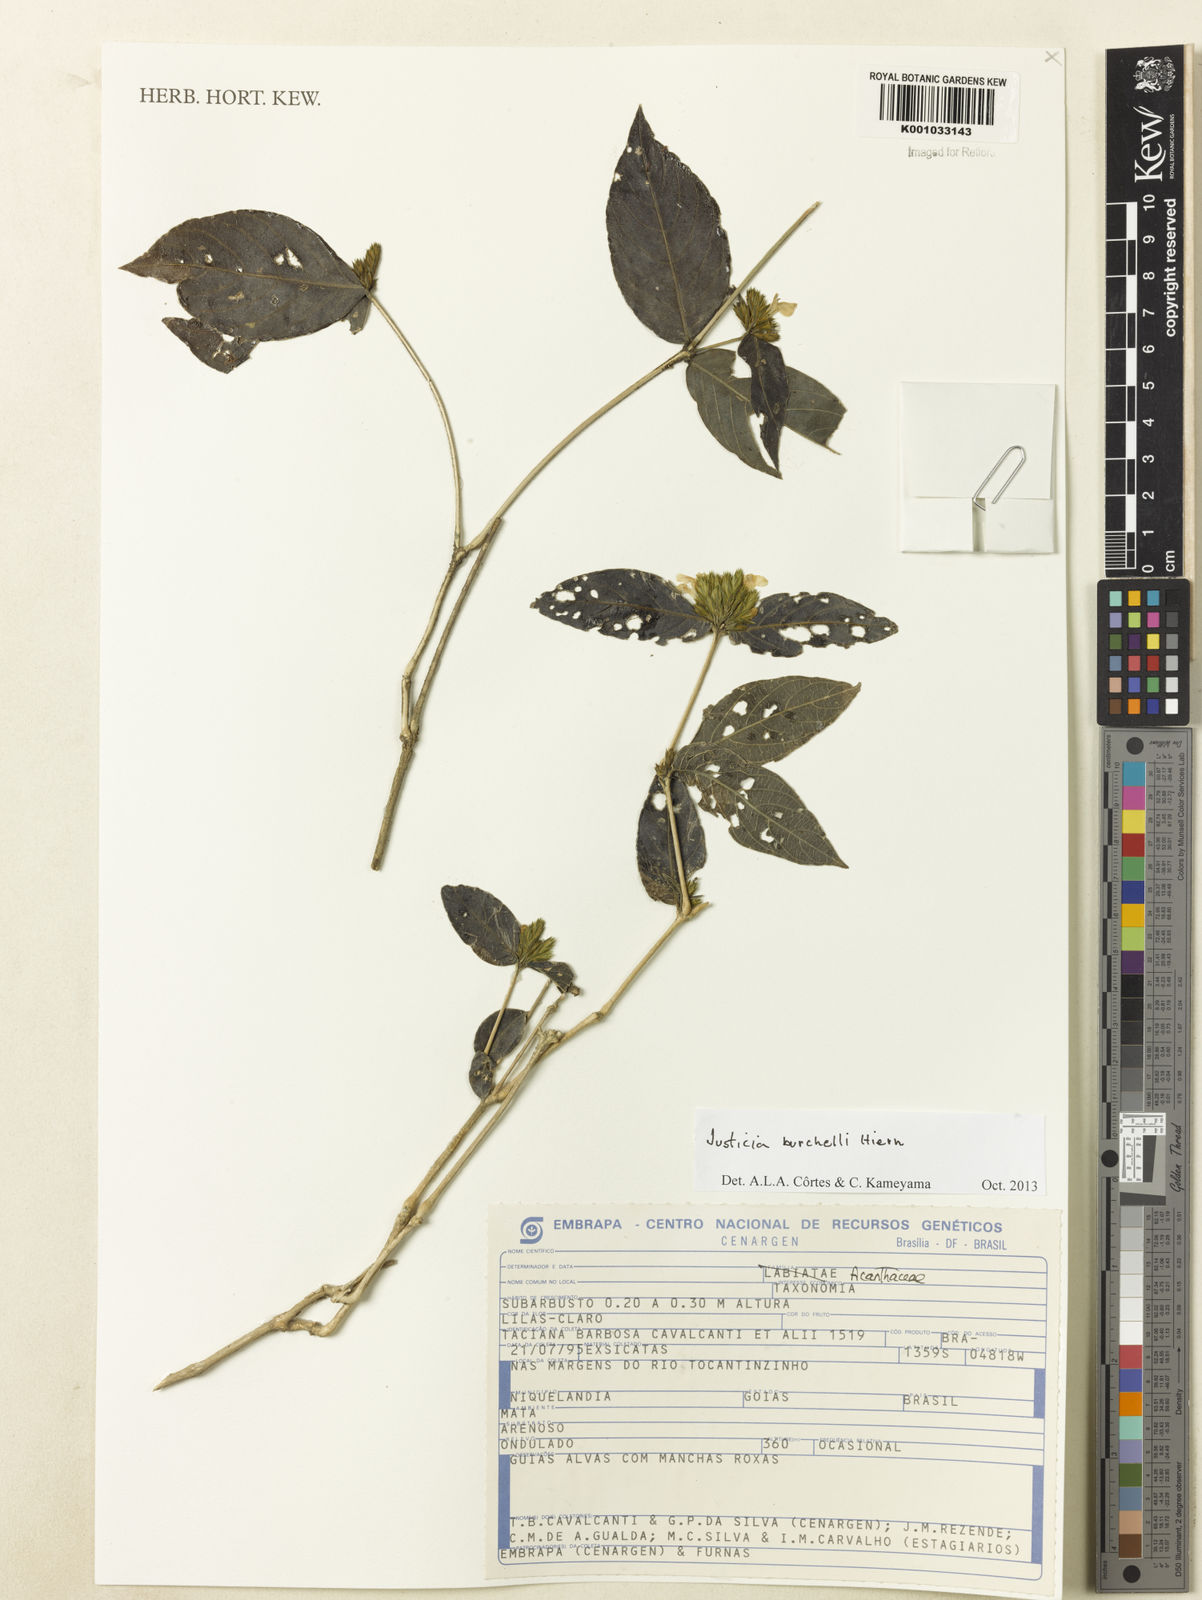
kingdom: Plantae
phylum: Tracheophyta
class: Magnoliopsida
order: Lamiales
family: Acanthaceae
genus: Justicia
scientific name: Justicia burchellii
